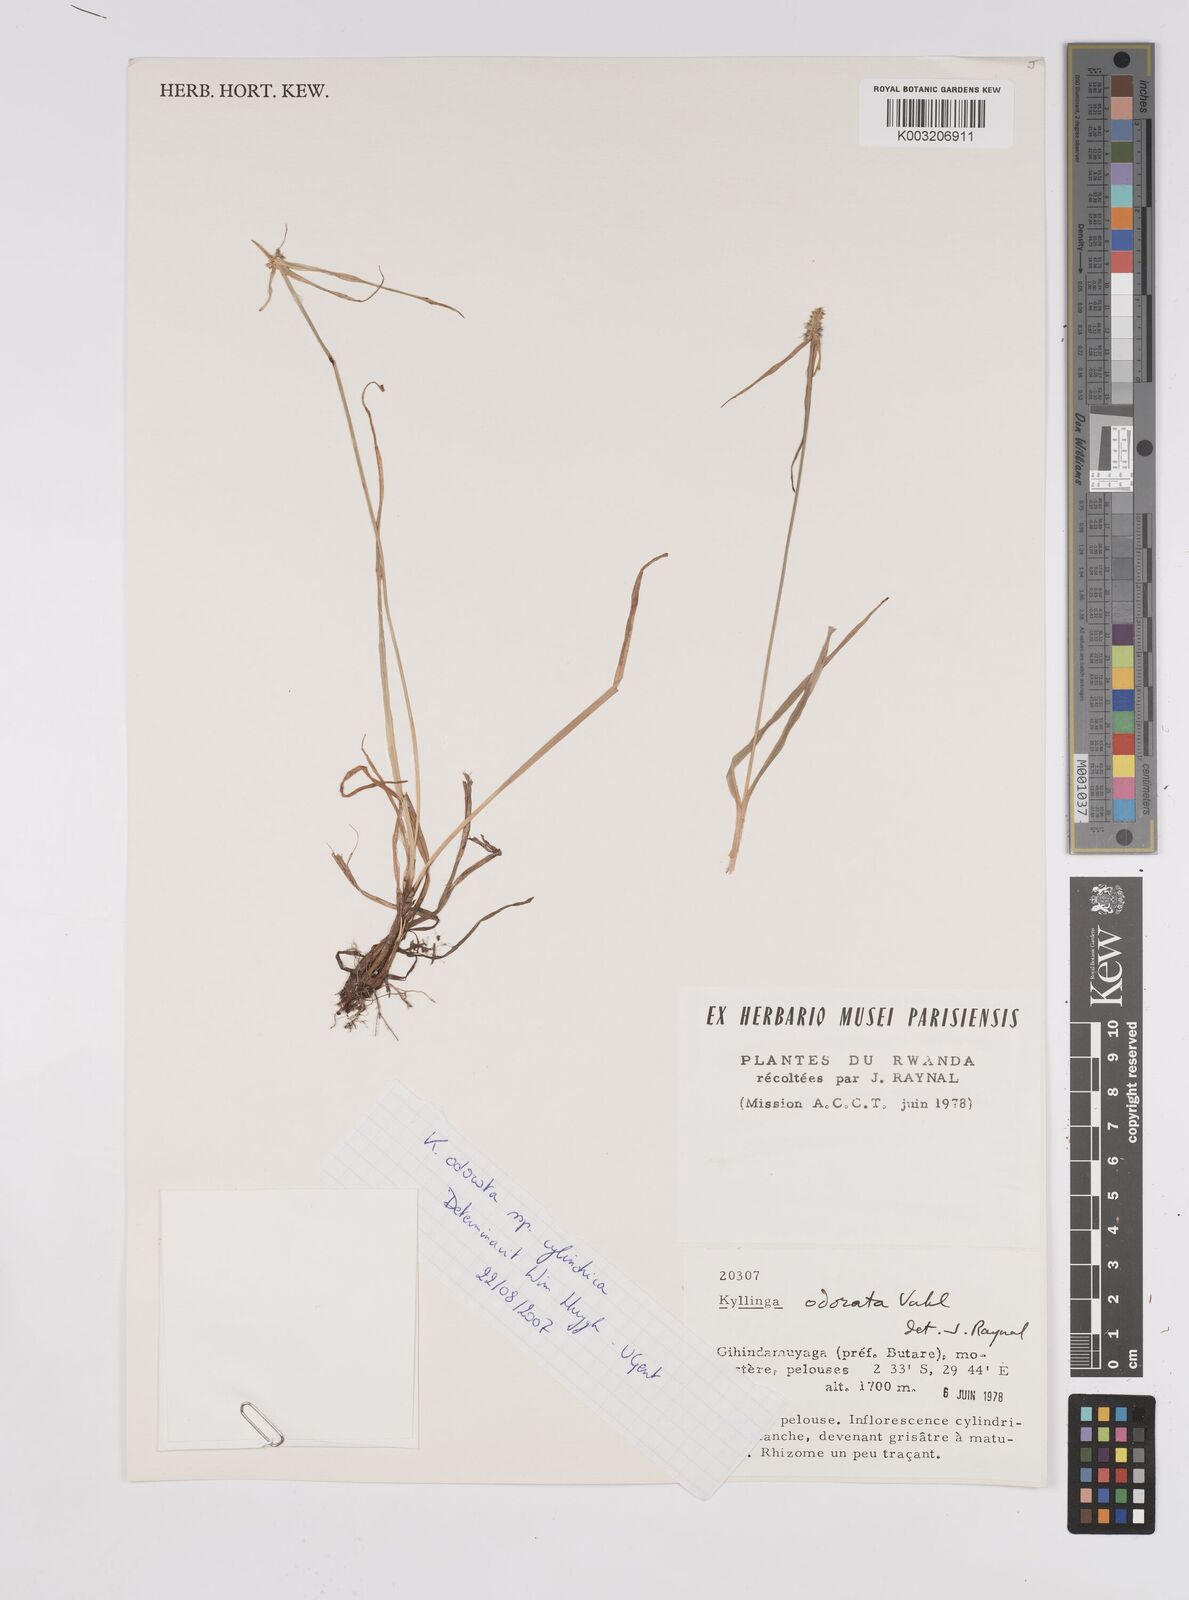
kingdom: Plantae
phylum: Tracheophyta
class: Liliopsida
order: Poales
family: Cyperaceae
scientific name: Cyperaceae
